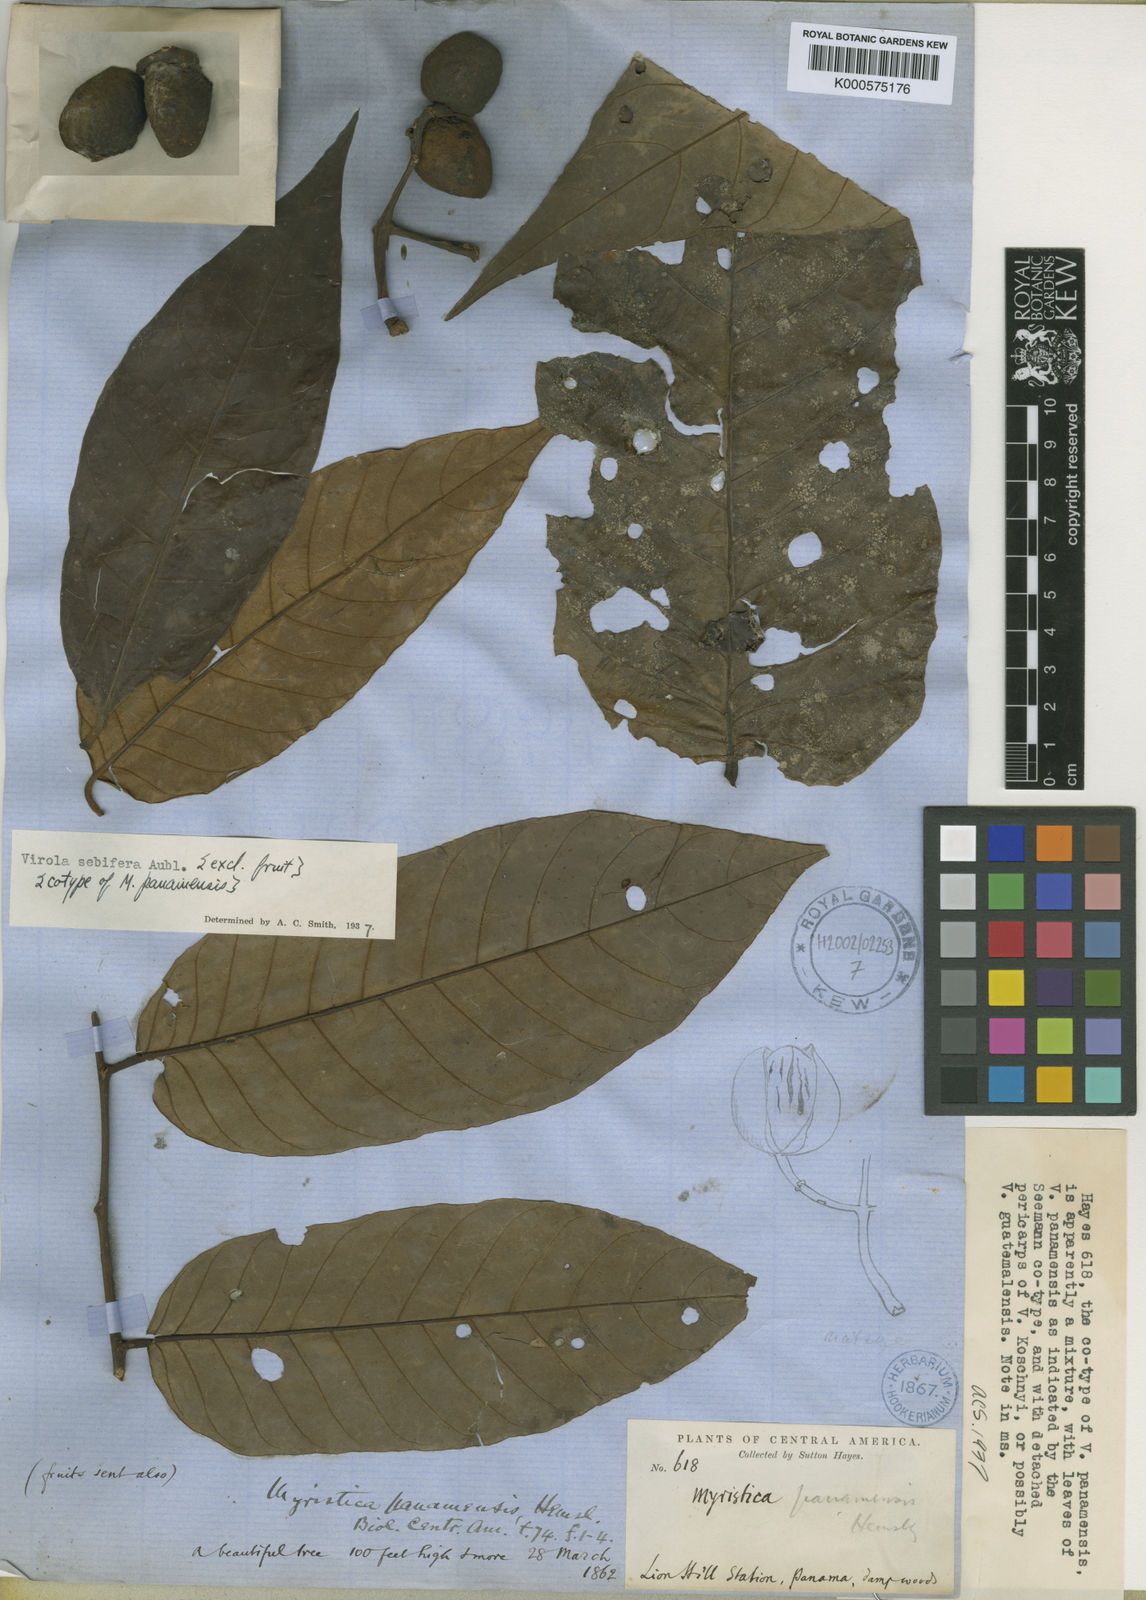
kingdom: Plantae
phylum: Tracheophyta
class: Magnoliopsida
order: Magnoliales
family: Myristicaceae
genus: Virola
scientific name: Virola sebifera
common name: Red ucuuba
